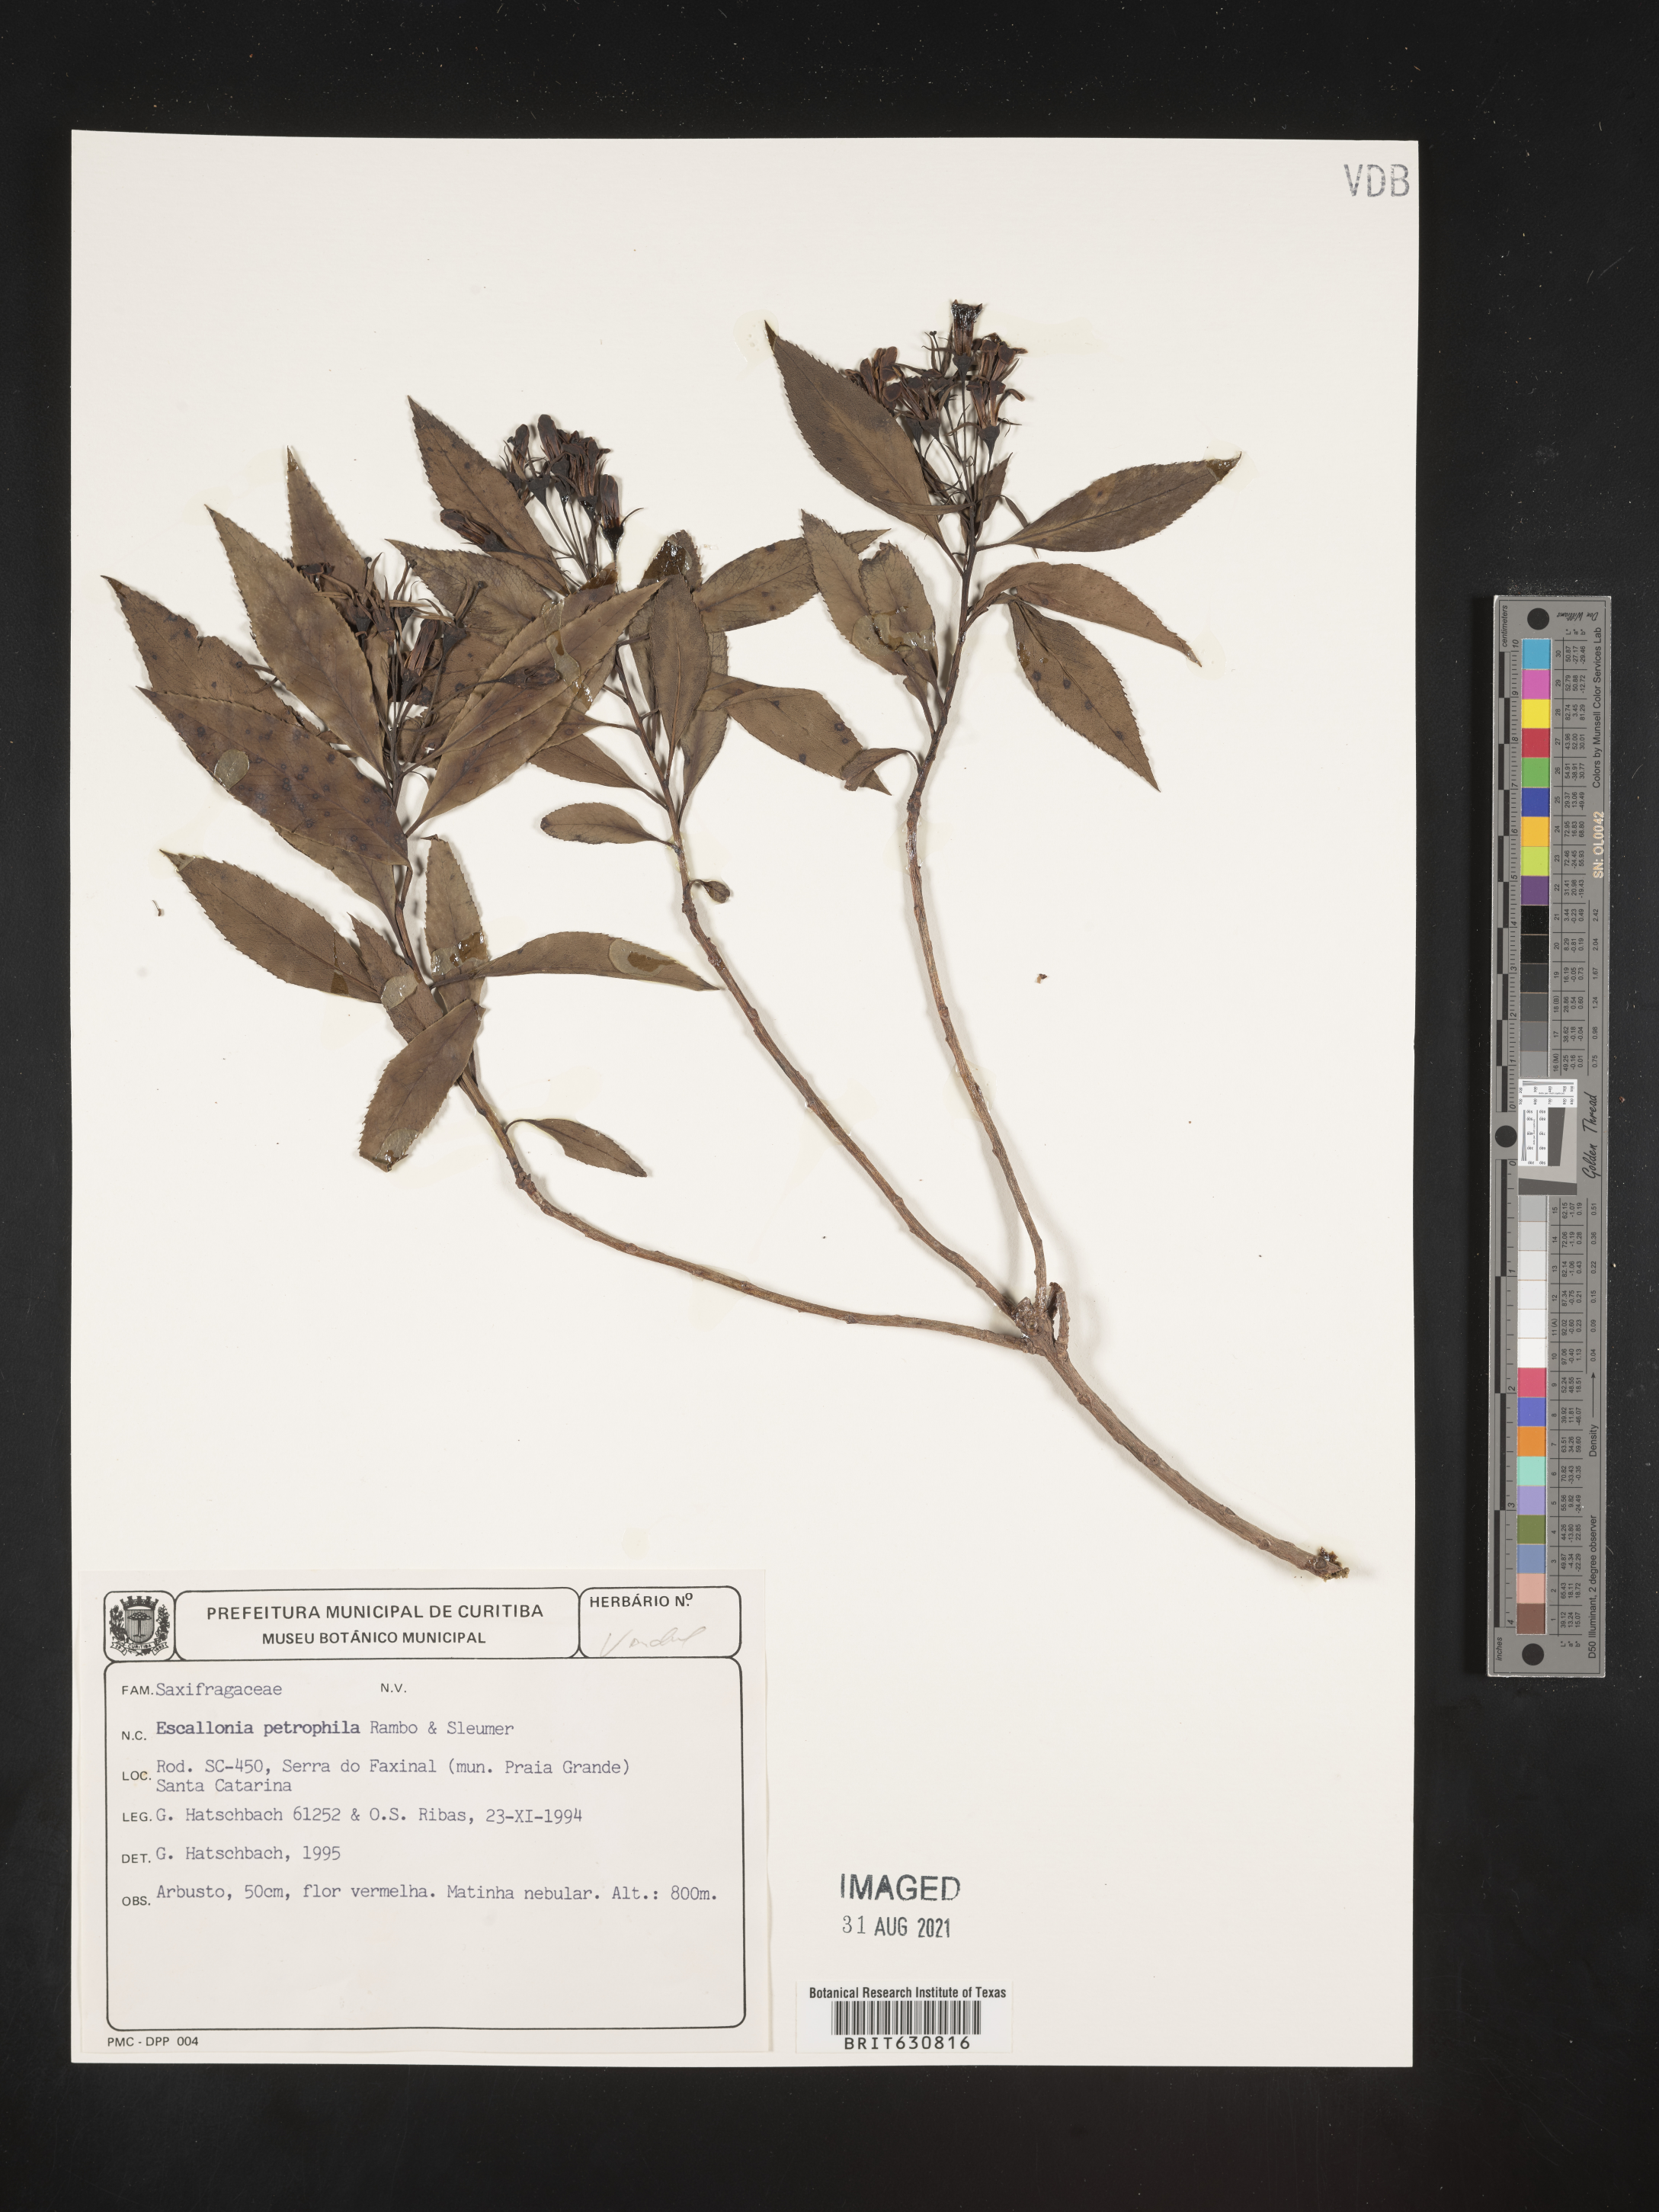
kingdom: Plantae
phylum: Tracheophyta
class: Magnoliopsida
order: Escalloniales
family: Escalloniaceae
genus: Escallonia
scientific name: Escallonia
